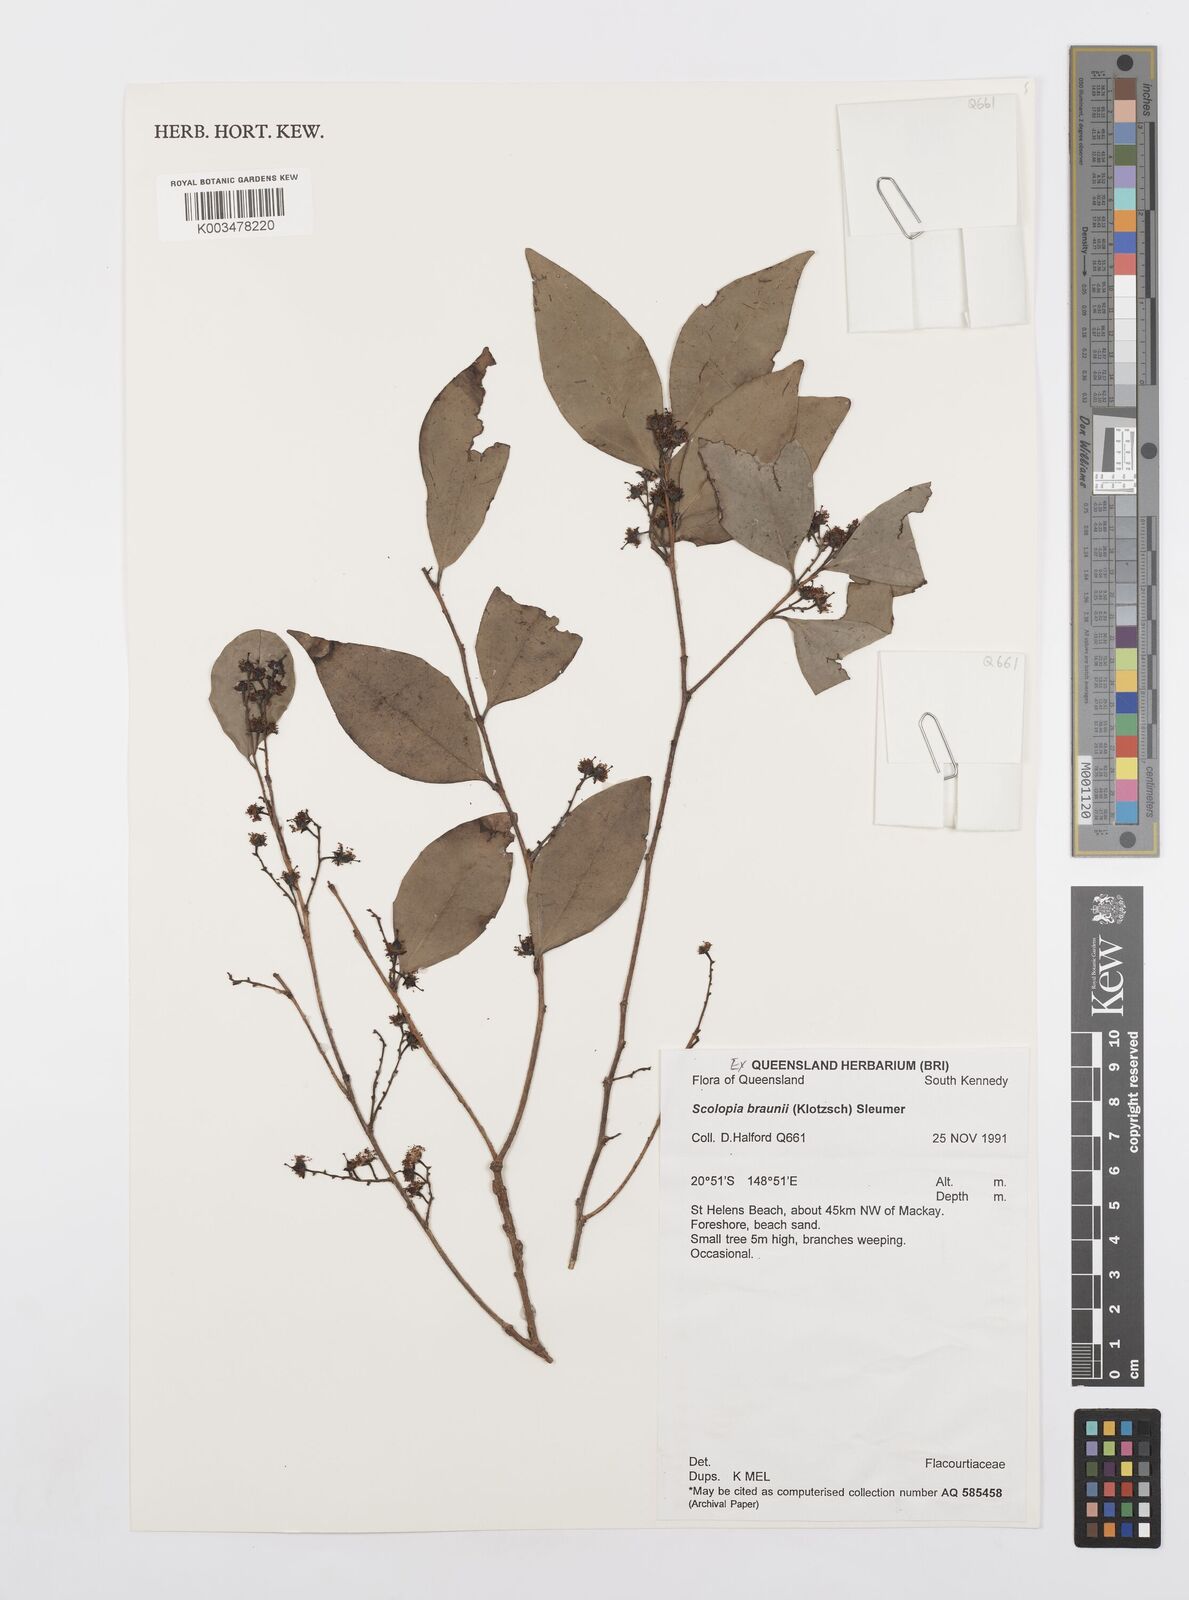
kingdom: Plantae
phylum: Tracheophyta
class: Magnoliopsida
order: Malpighiales
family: Salicaceae
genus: Scolopia
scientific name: Scolopia braunii
